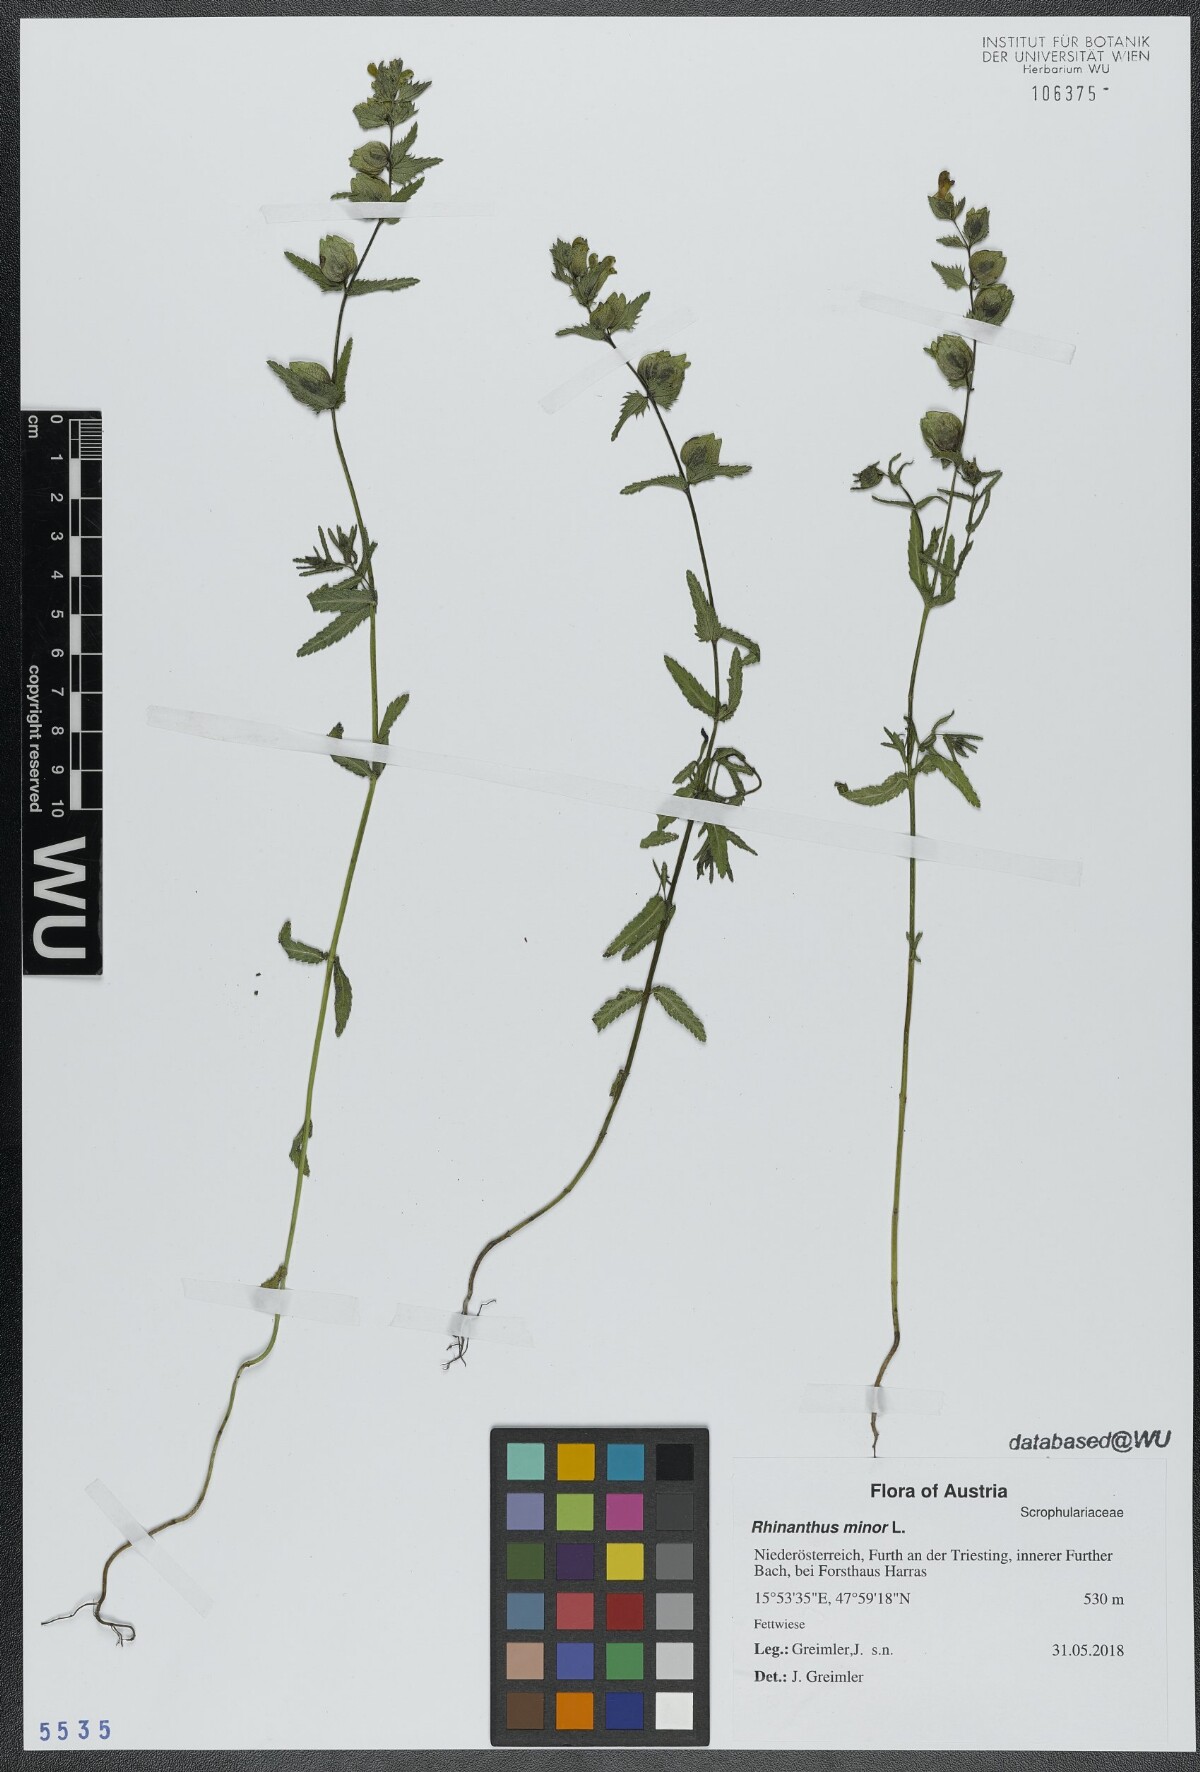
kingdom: Plantae
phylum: Tracheophyta
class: Magnoliopsida
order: Lamiales
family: Orobanchaceae
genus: Rhinanthus
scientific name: Rhinanthus minor
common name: Yellow-rattle
